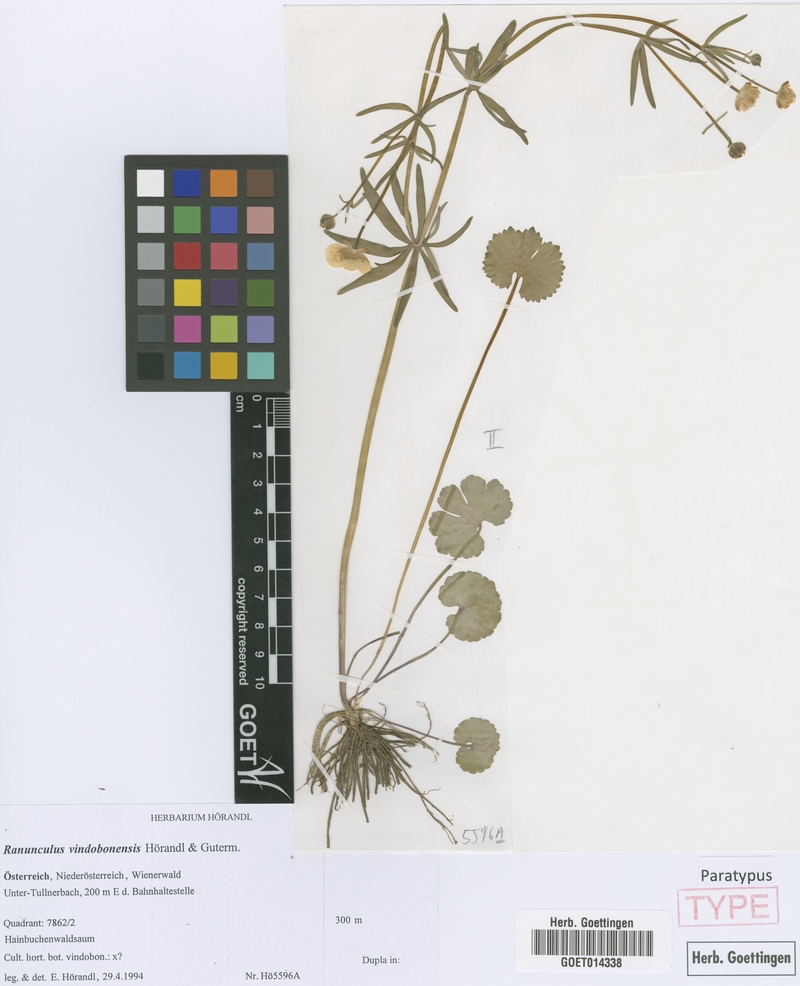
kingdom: Plantae
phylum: Tracheophyta
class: Magnoliopsida
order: Ranunculales
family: Ranunculaceae
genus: Ranunculus
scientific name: Ranunculus vindobonensis
